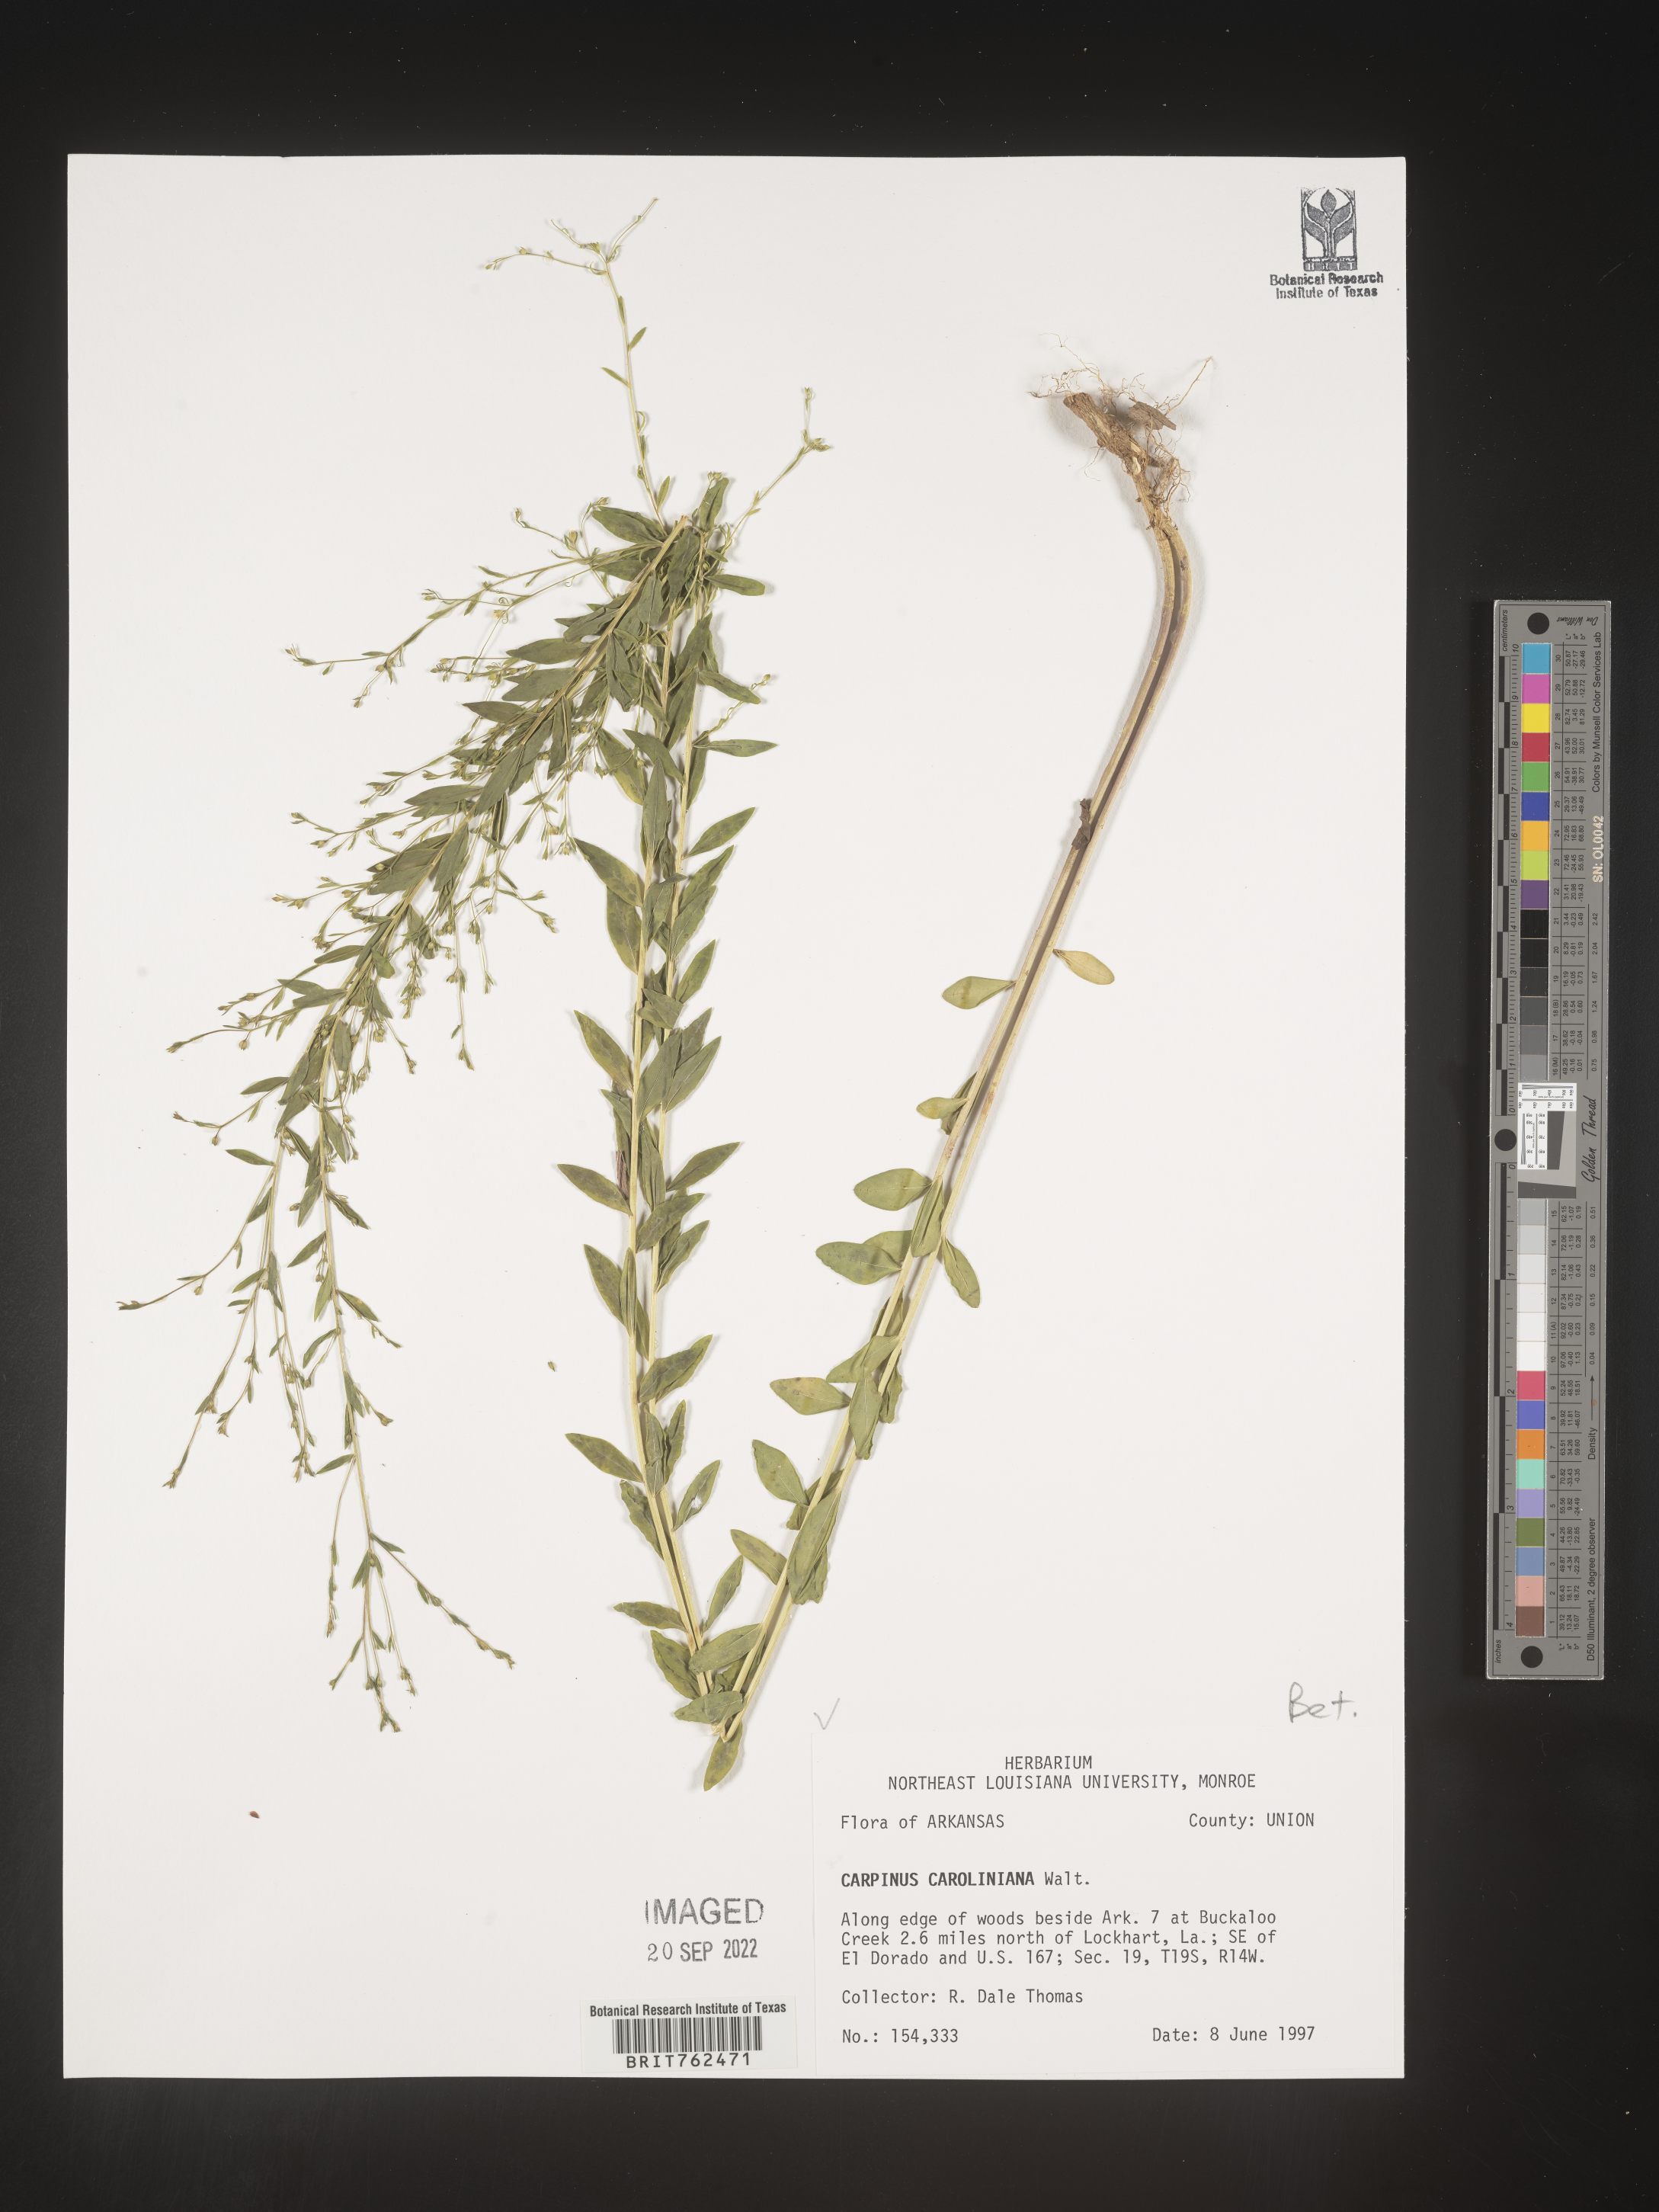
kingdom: Plantae
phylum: Tracheophyta
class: Magnoliopsida
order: Fagales
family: Betulaceae
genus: Carpinus
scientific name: Carpinus caroliniana
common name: American hornbeam
